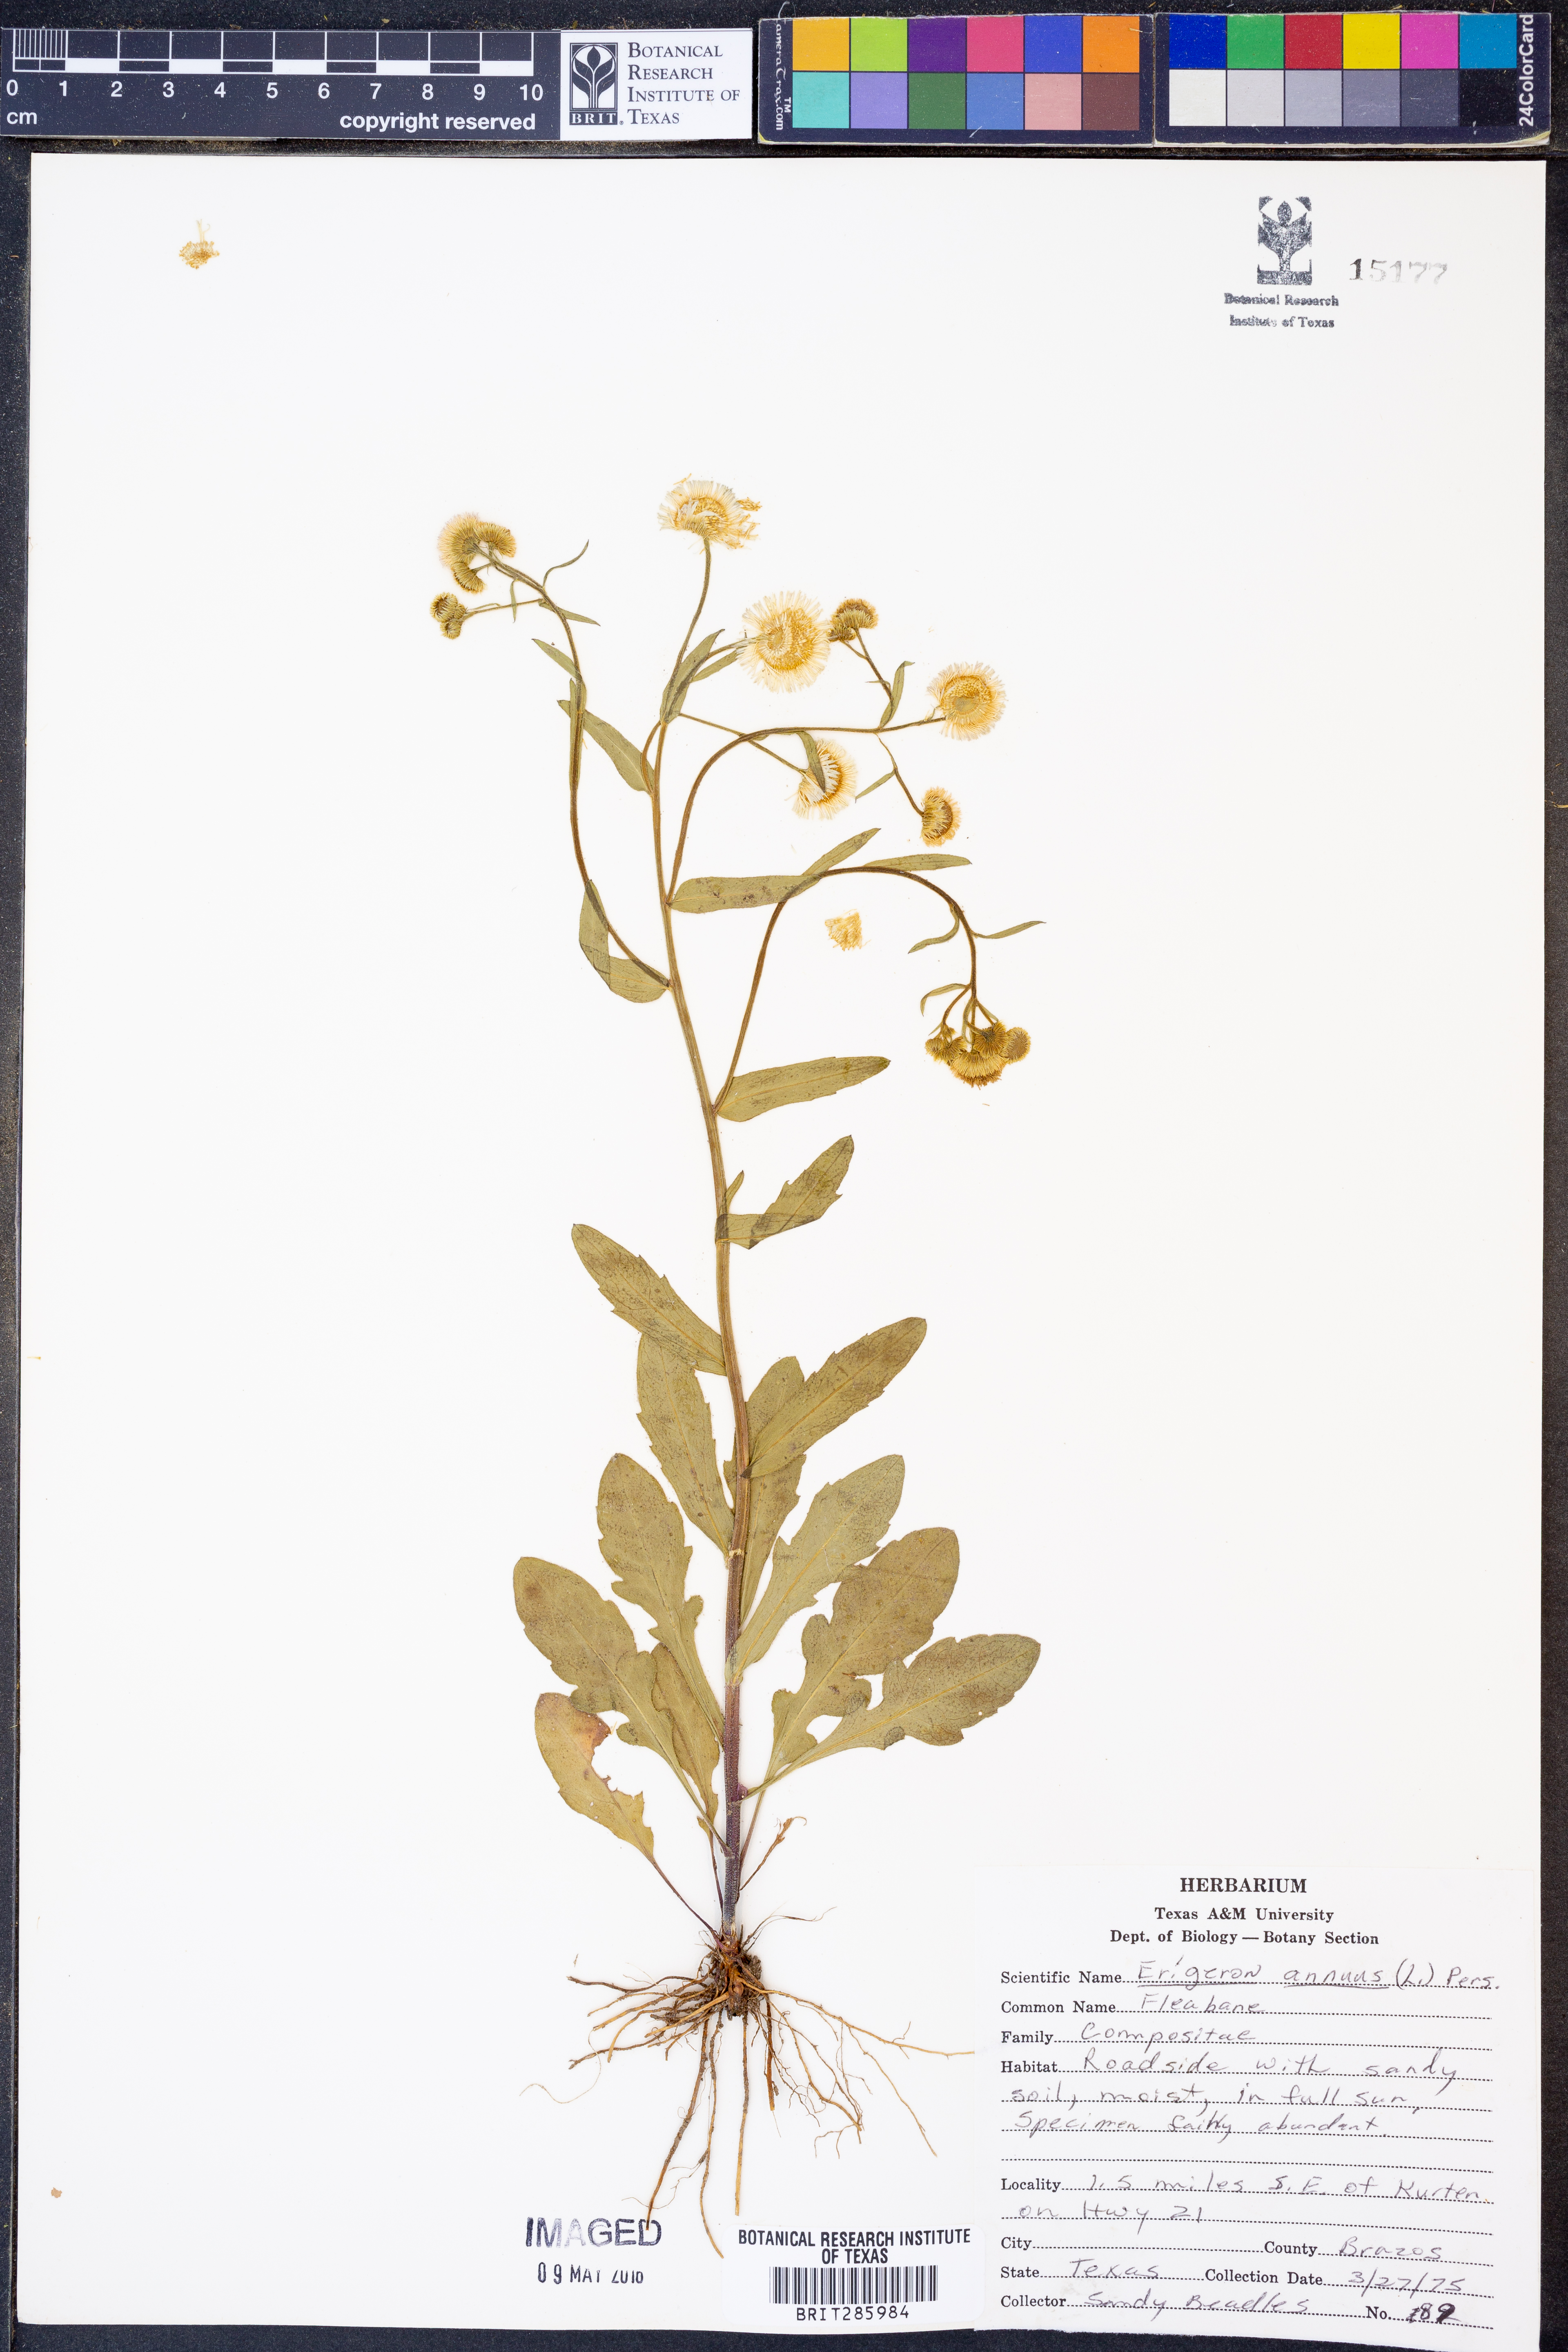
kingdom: Plantae
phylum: Tracheophyta
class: Magnoliopsida
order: Asterales
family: Asteraceae
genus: Erigeron
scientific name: Erigeron annuus
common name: Tall fleabane
